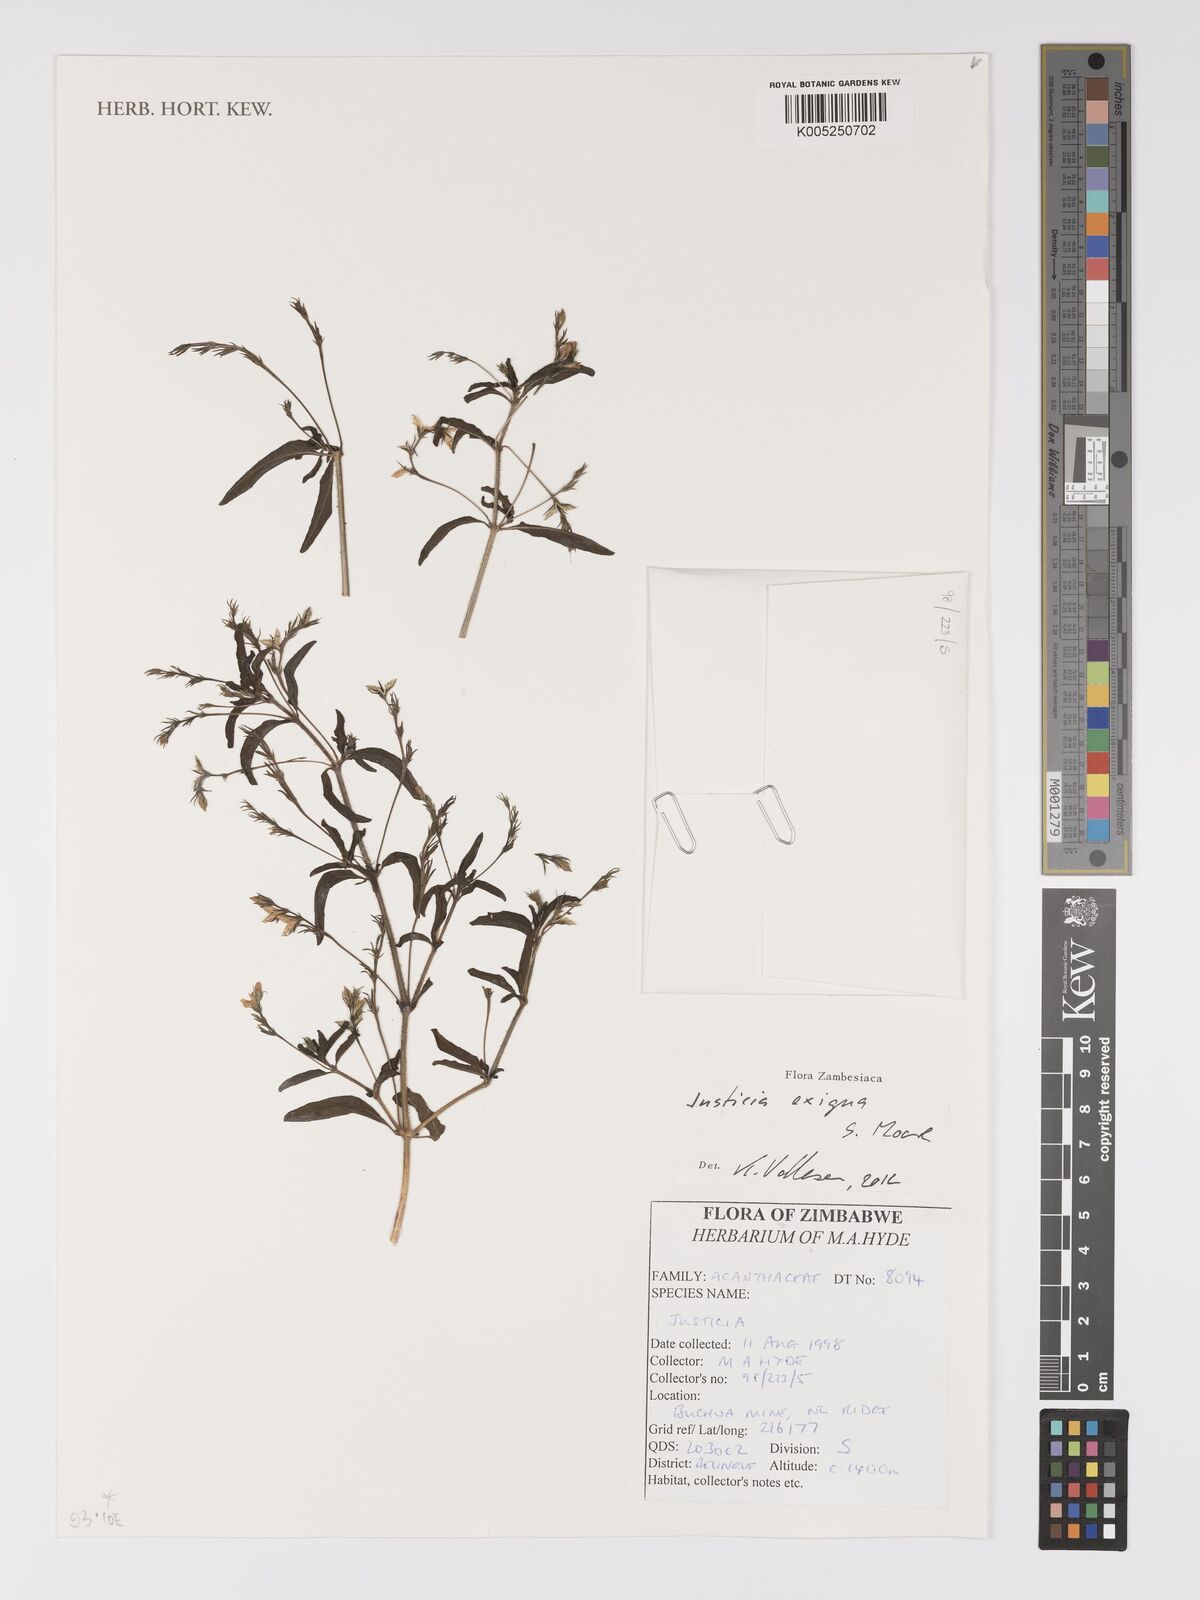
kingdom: Plantae
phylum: Tracheophyta
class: Magnoliopsida
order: Lamiales
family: Acanthaceae
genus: Justicia
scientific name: Justicia exigua
